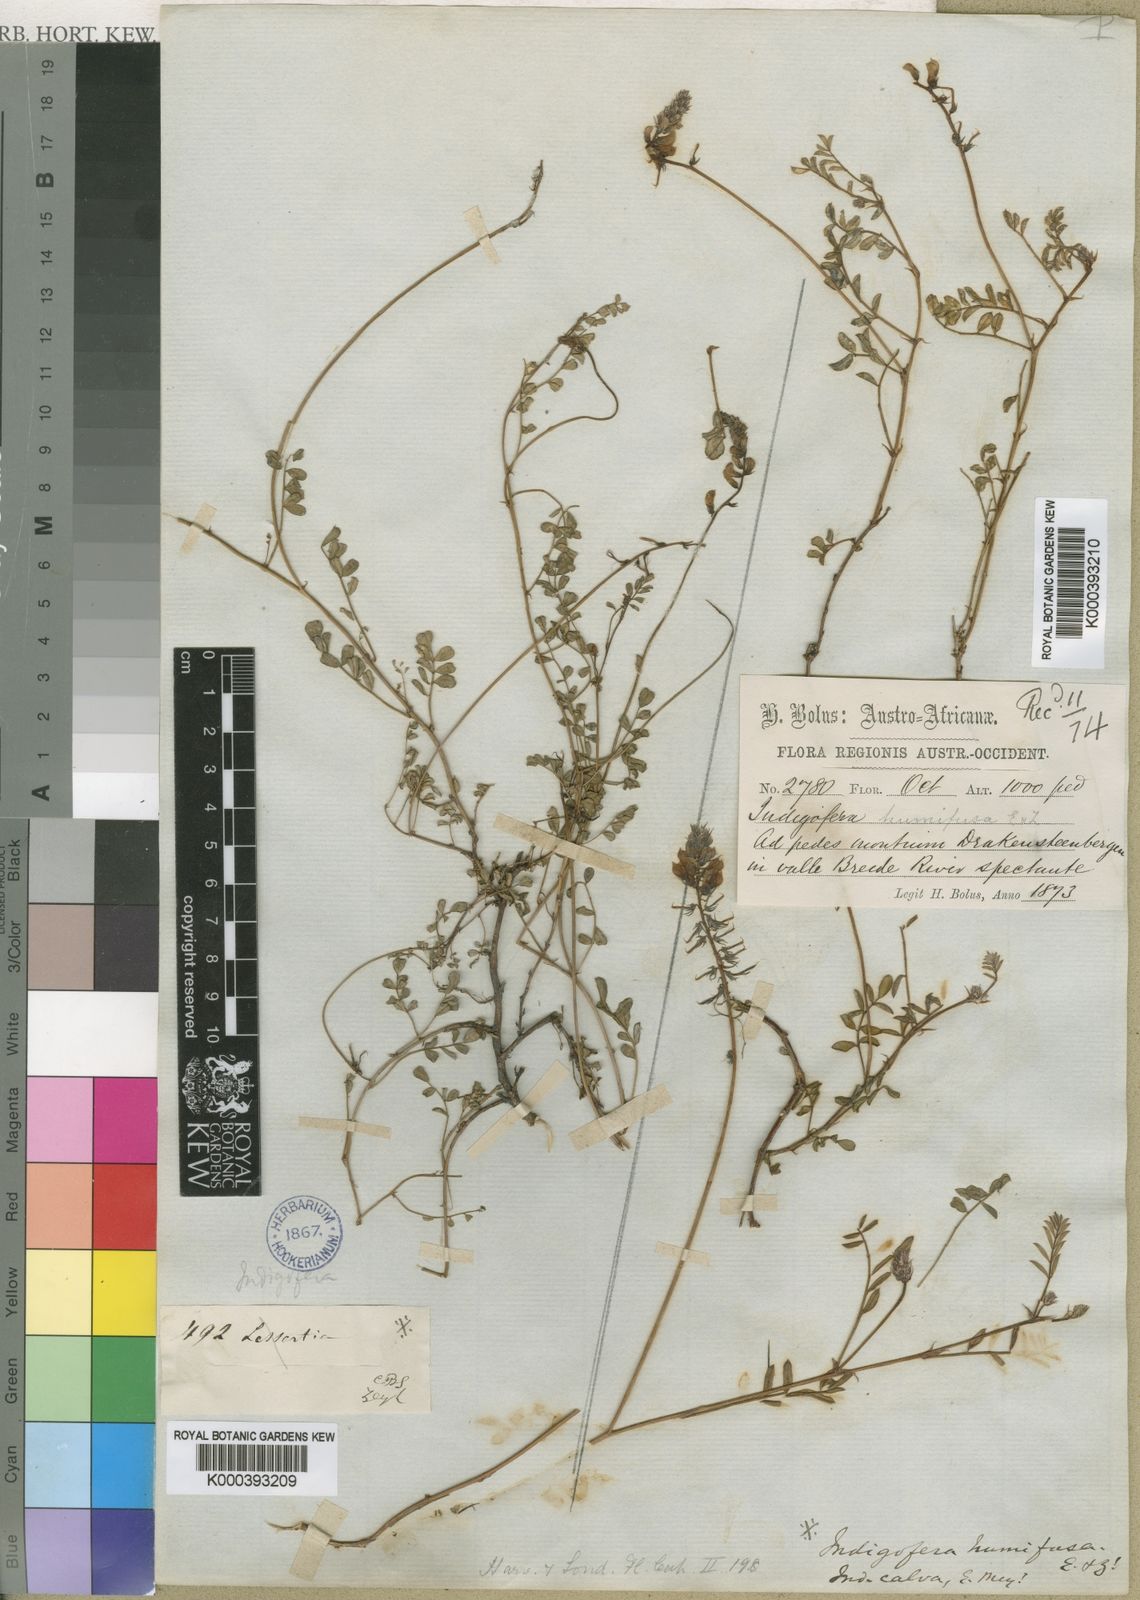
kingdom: Plantae
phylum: Tracheophyta
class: Magnoliopsida
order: Fabales
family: Fabaceae
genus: Indigofera
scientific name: Indigofera humifusa
